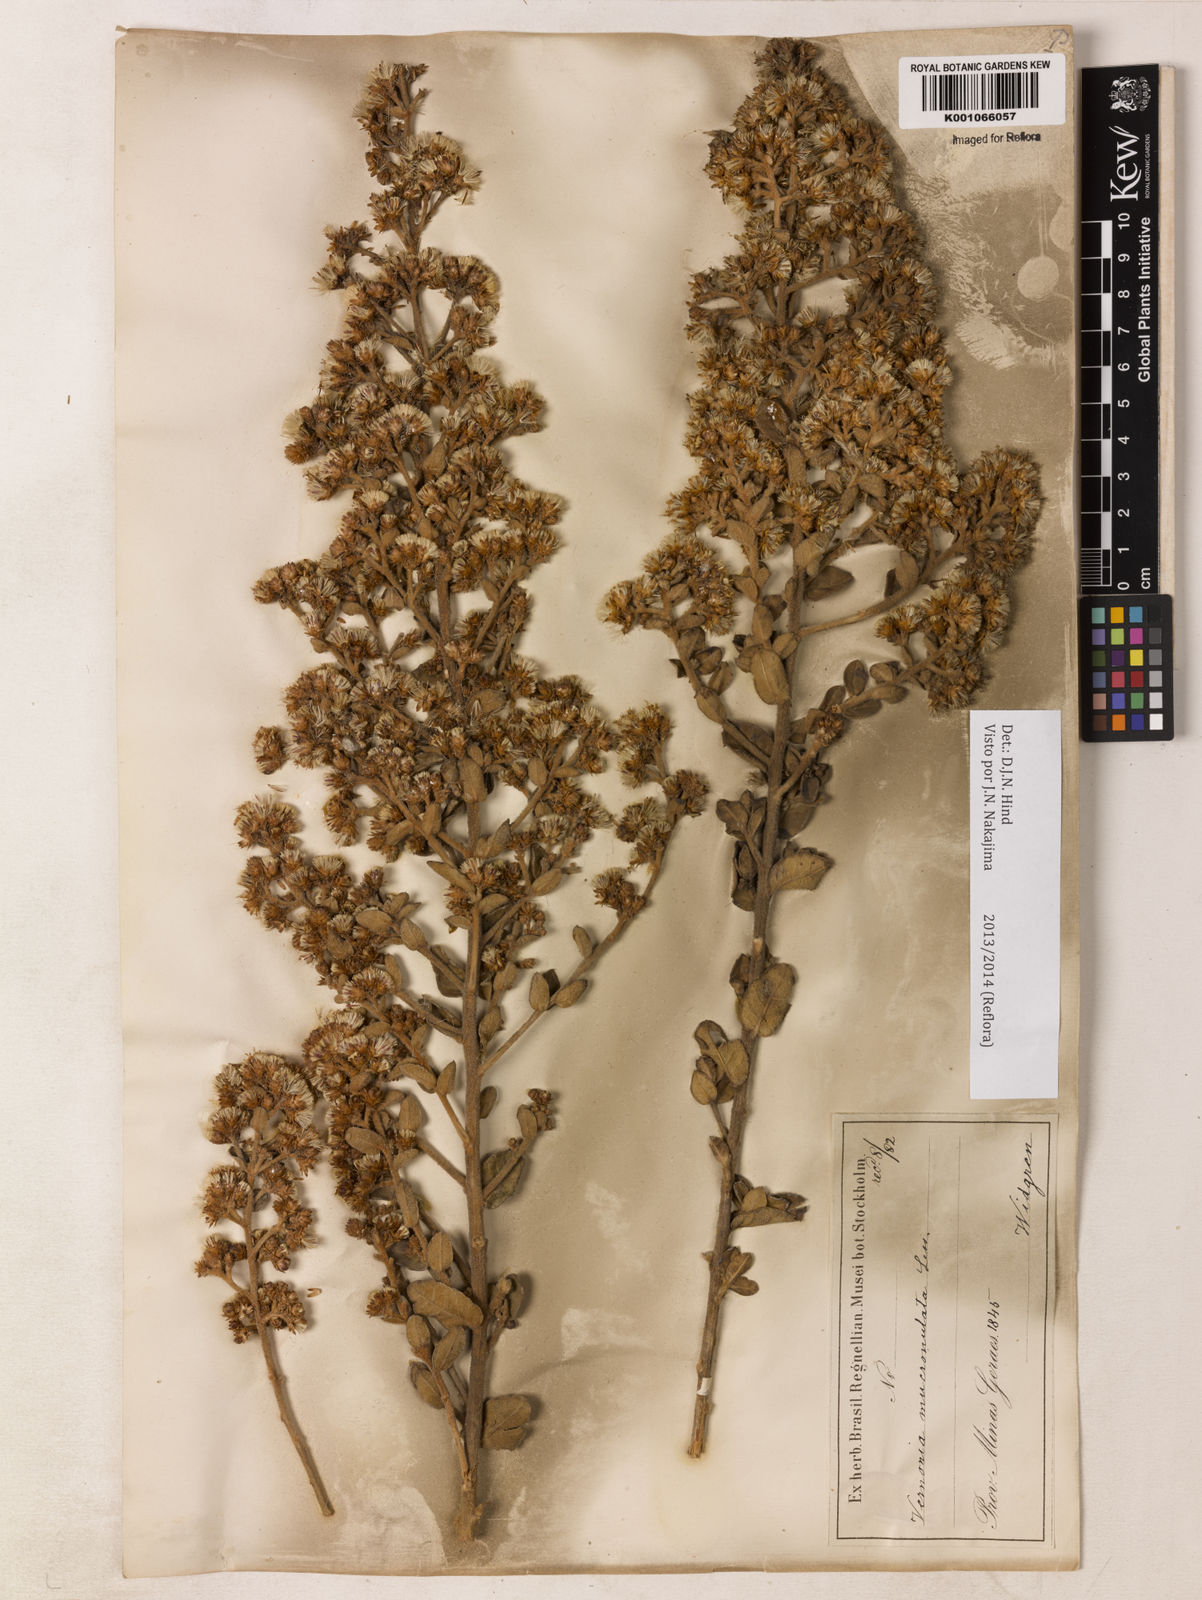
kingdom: Plantae
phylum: Tracheophyta
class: Magnoliopsida
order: Asterales
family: Asteraceae
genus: Vernonanthura
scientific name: Vernonanthura mucronulata
